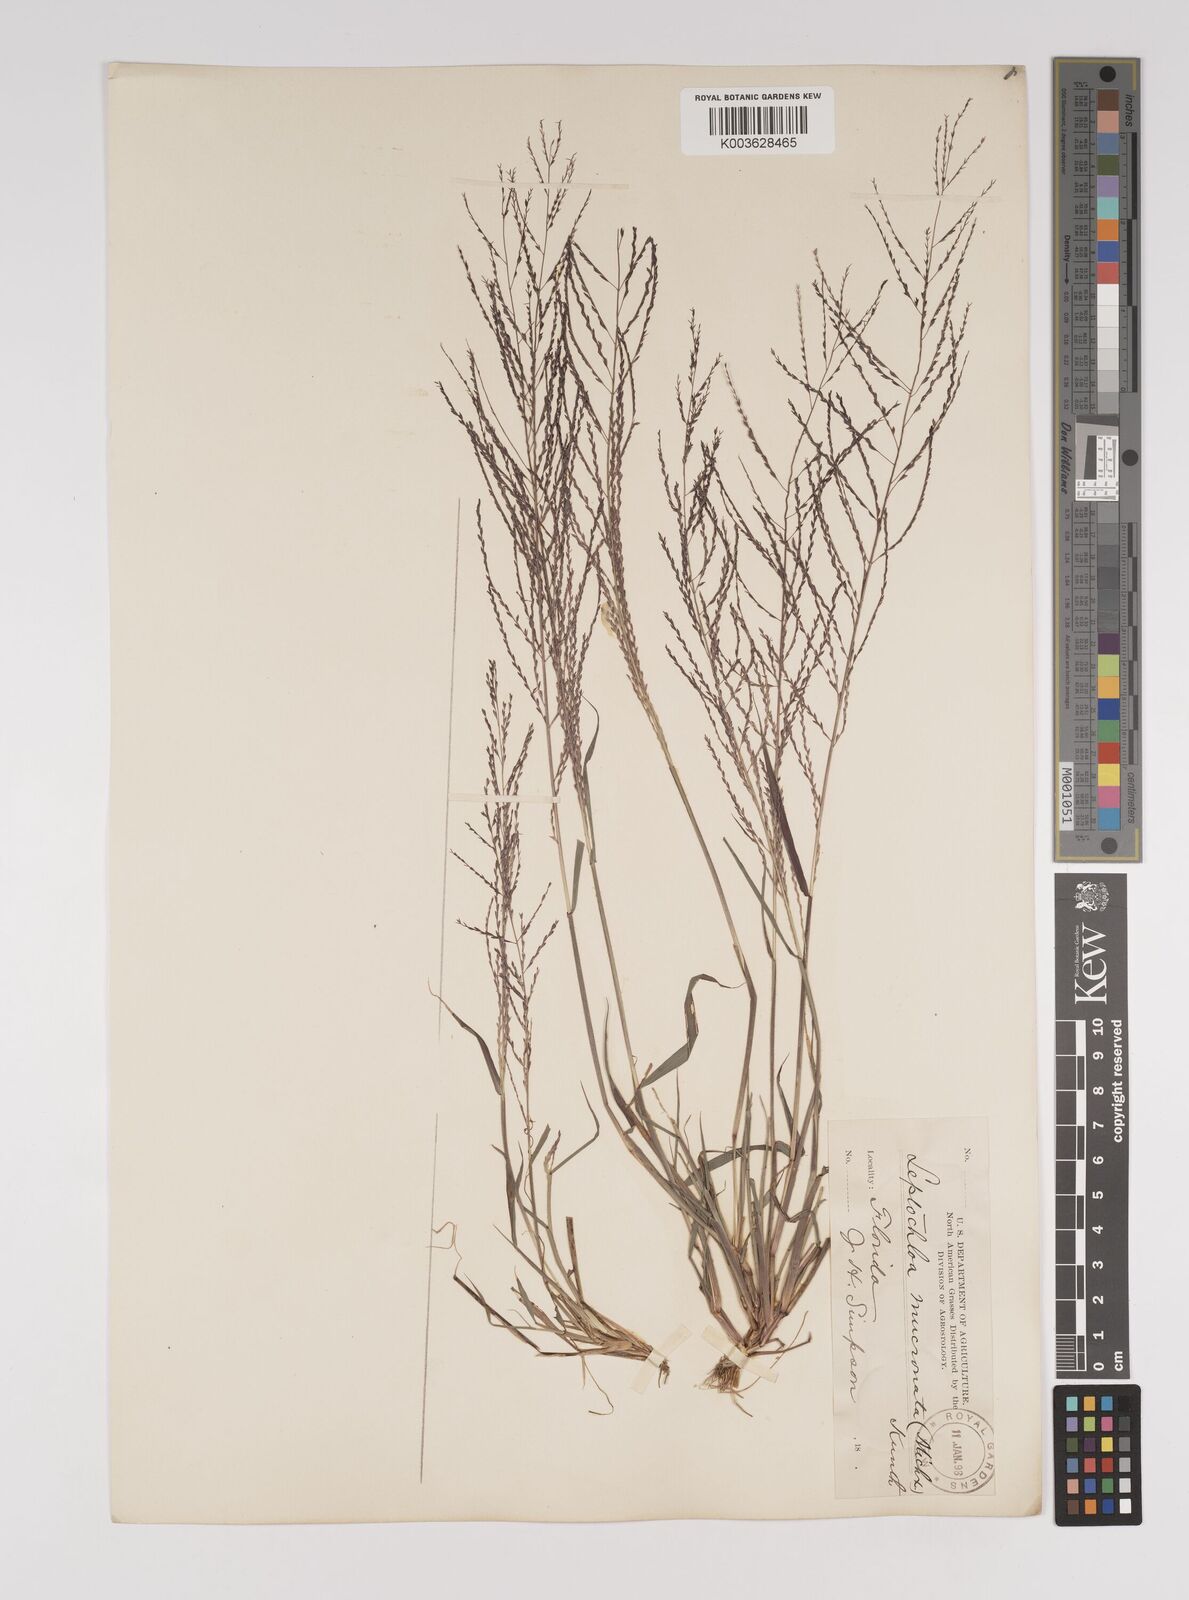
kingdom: Plantae
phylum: Tracheophyta
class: Liliopsida
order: Poales
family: Poaceae
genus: Leptochloa
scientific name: Leptochloa panicea
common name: Mucronate sprangletop
